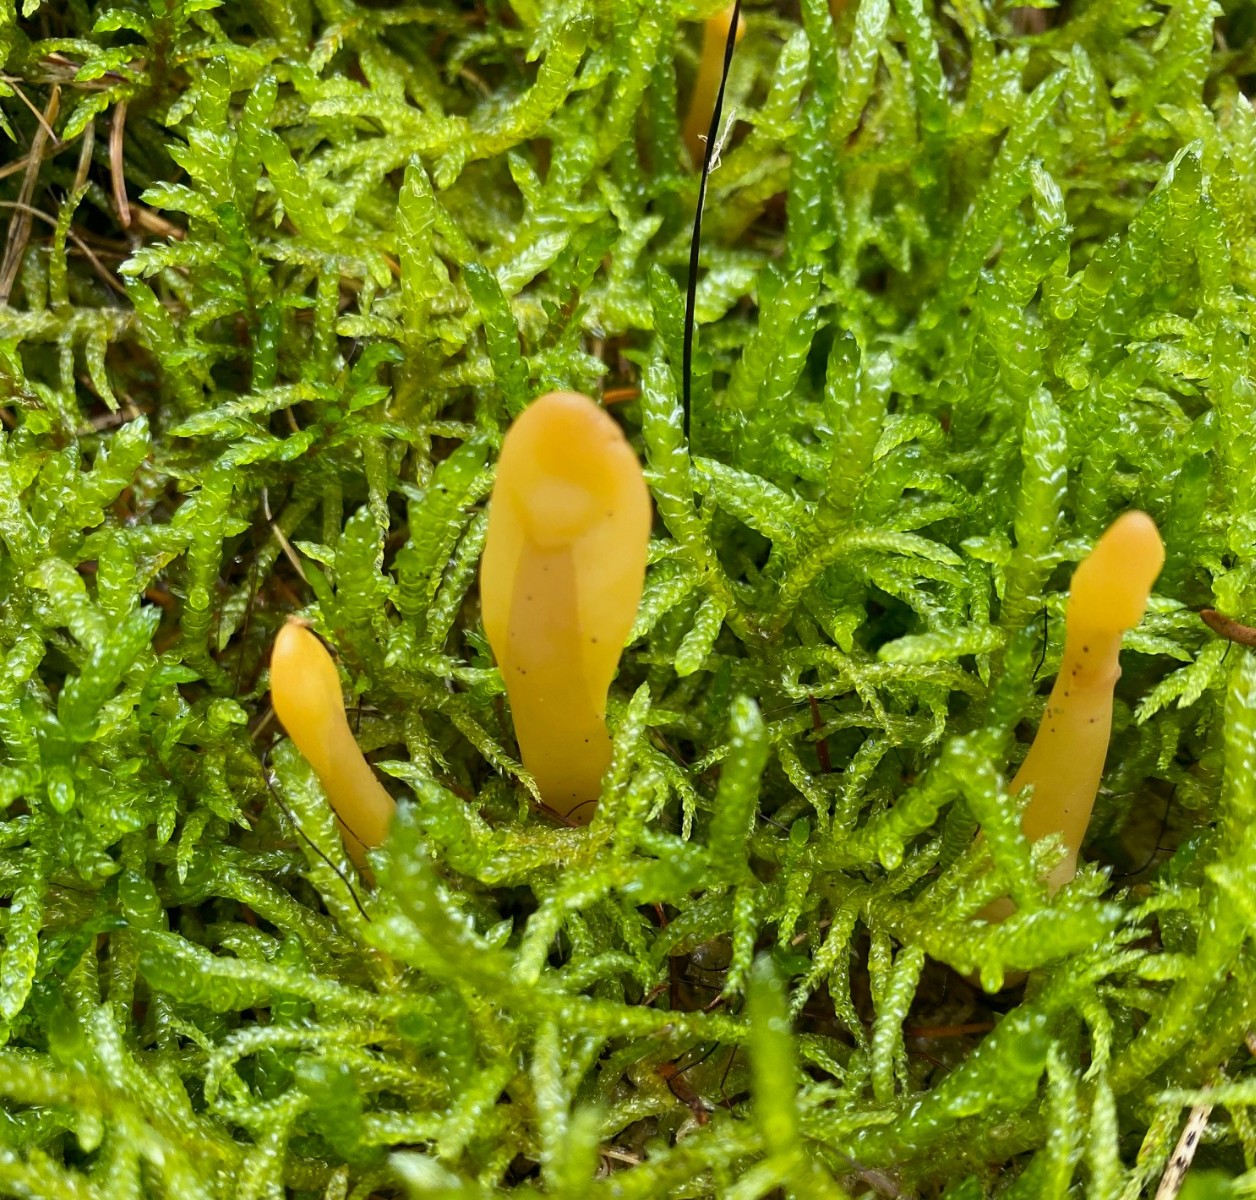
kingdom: Fungi
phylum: Ascomycota
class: Leotiomycetes
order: Rhytismatales
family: Cudoniaceae
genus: Spathularia
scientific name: Spathularia flavida
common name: gul spatelsvamp
